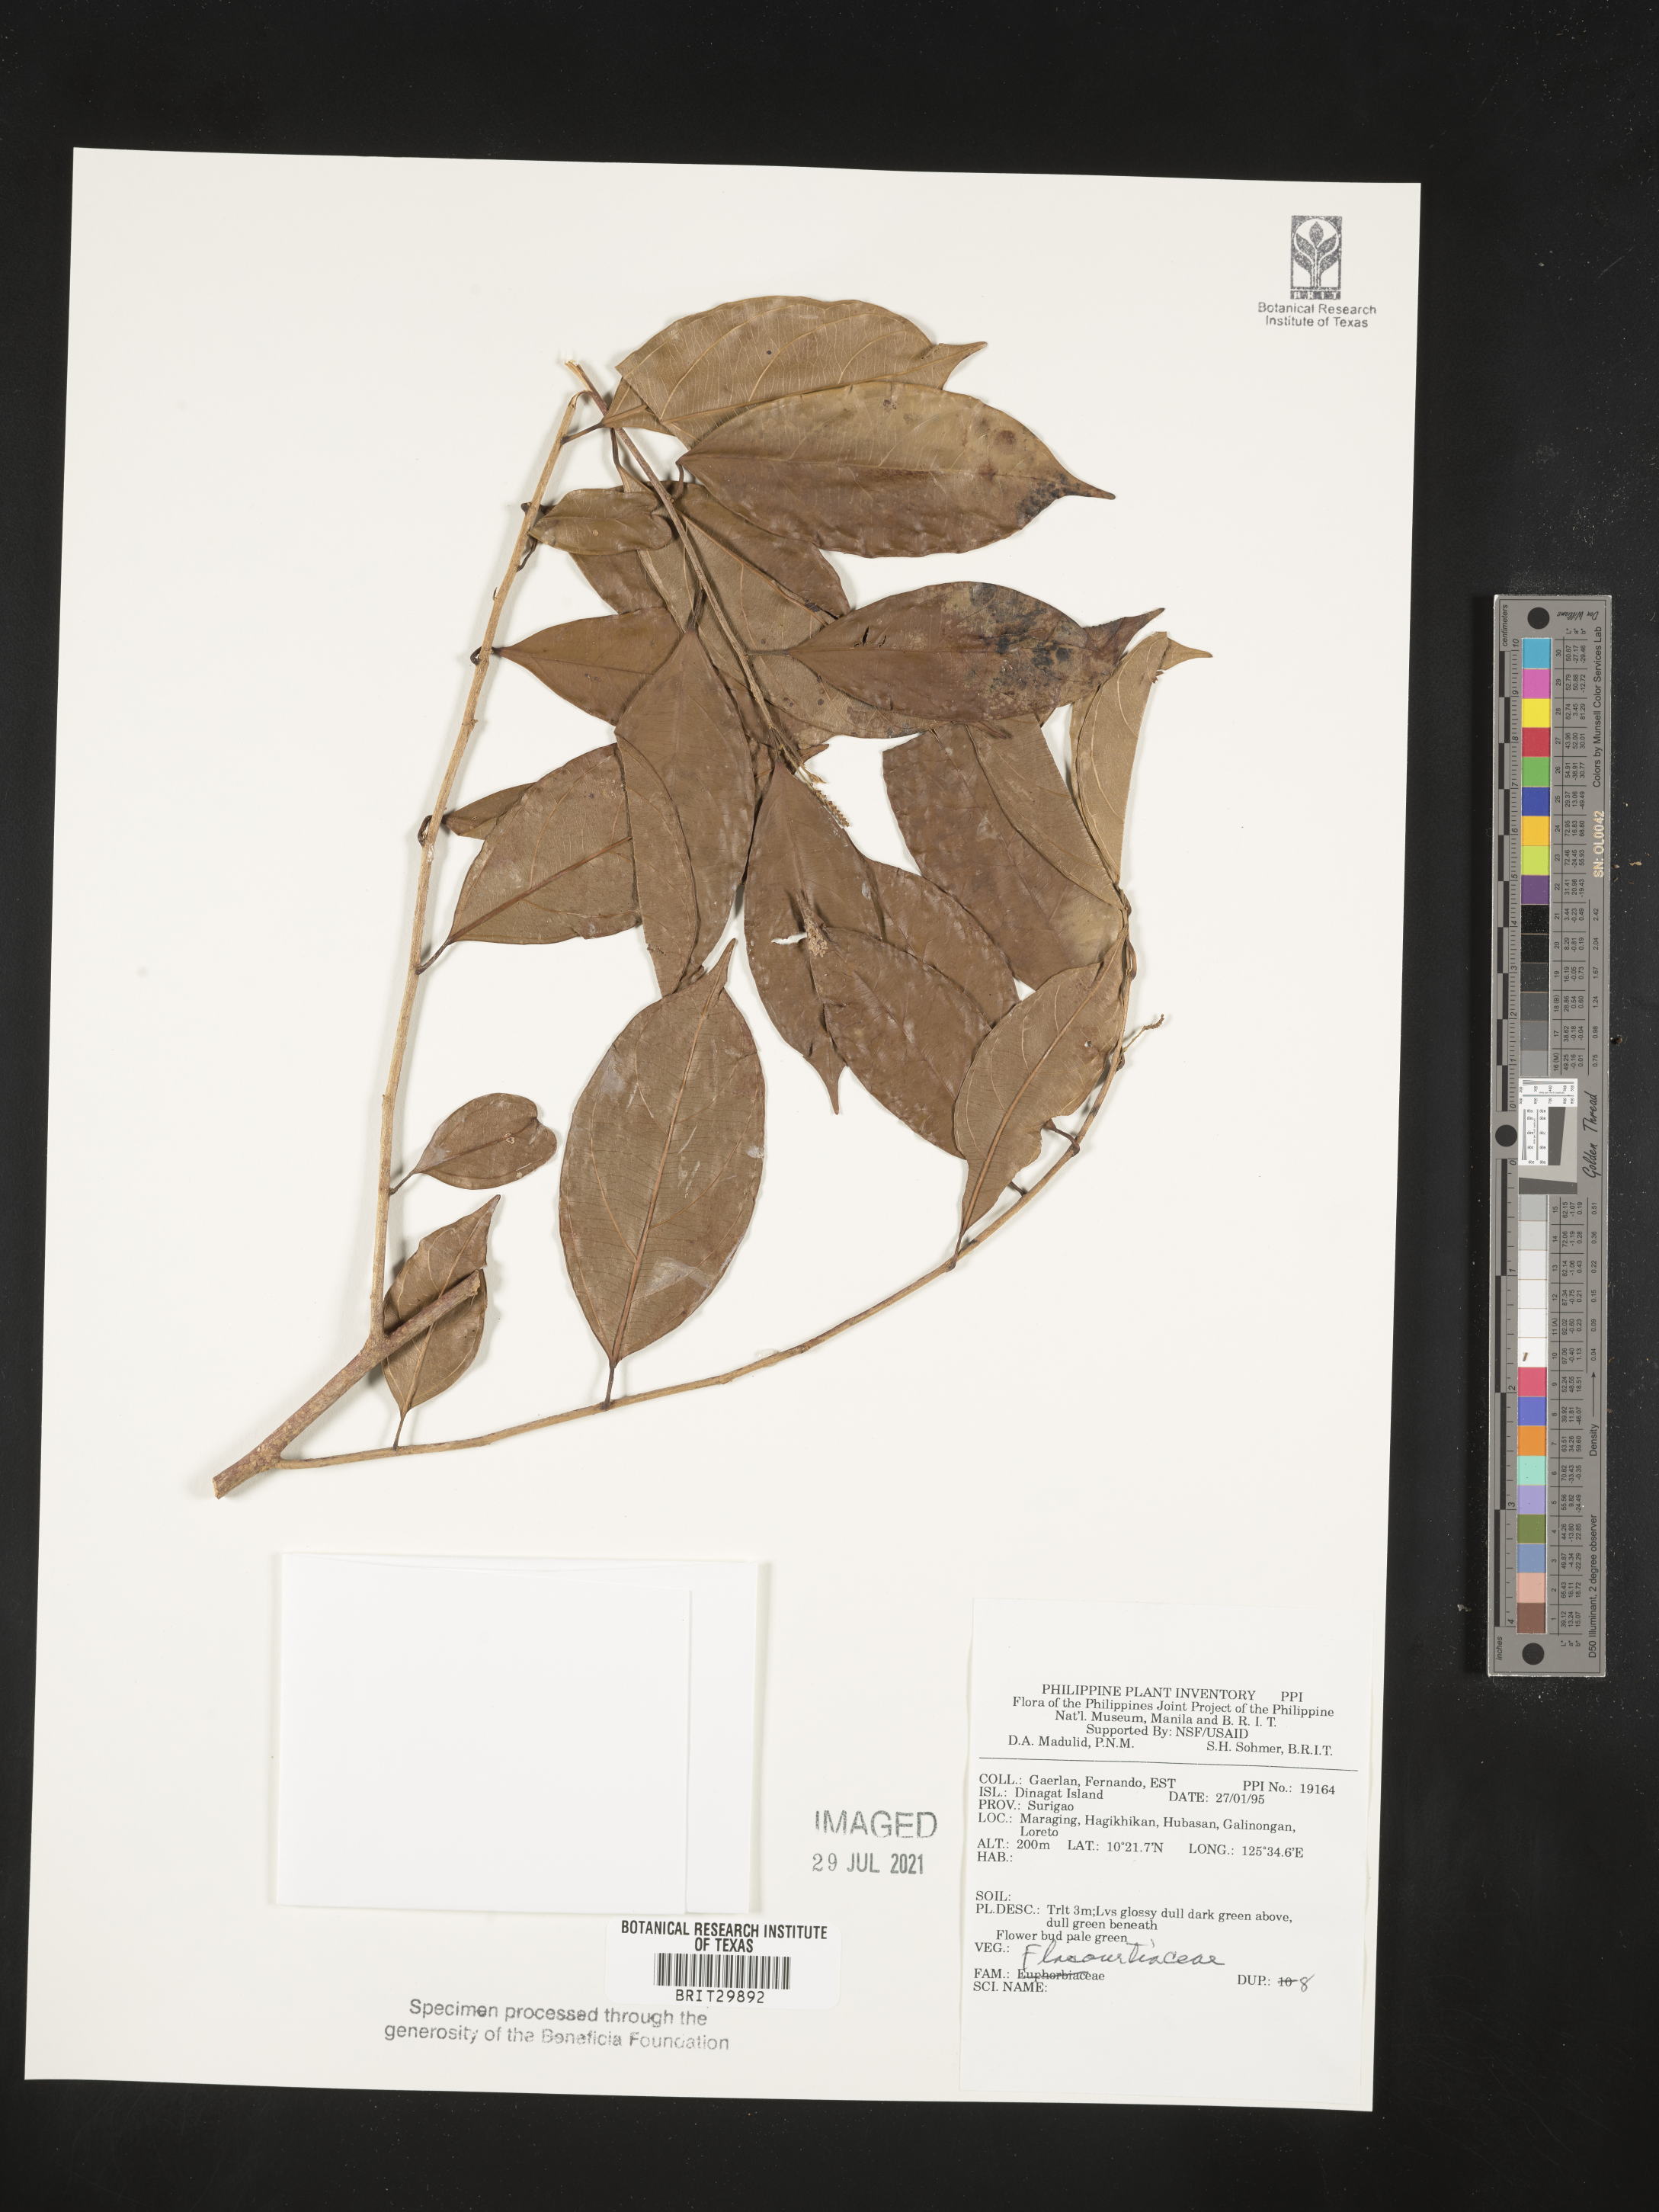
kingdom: Plantae
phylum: Tracheophyta
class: Magnoliopsida
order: Malpighiales
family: Flacourtiaceae
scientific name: Flacourtiaceae
